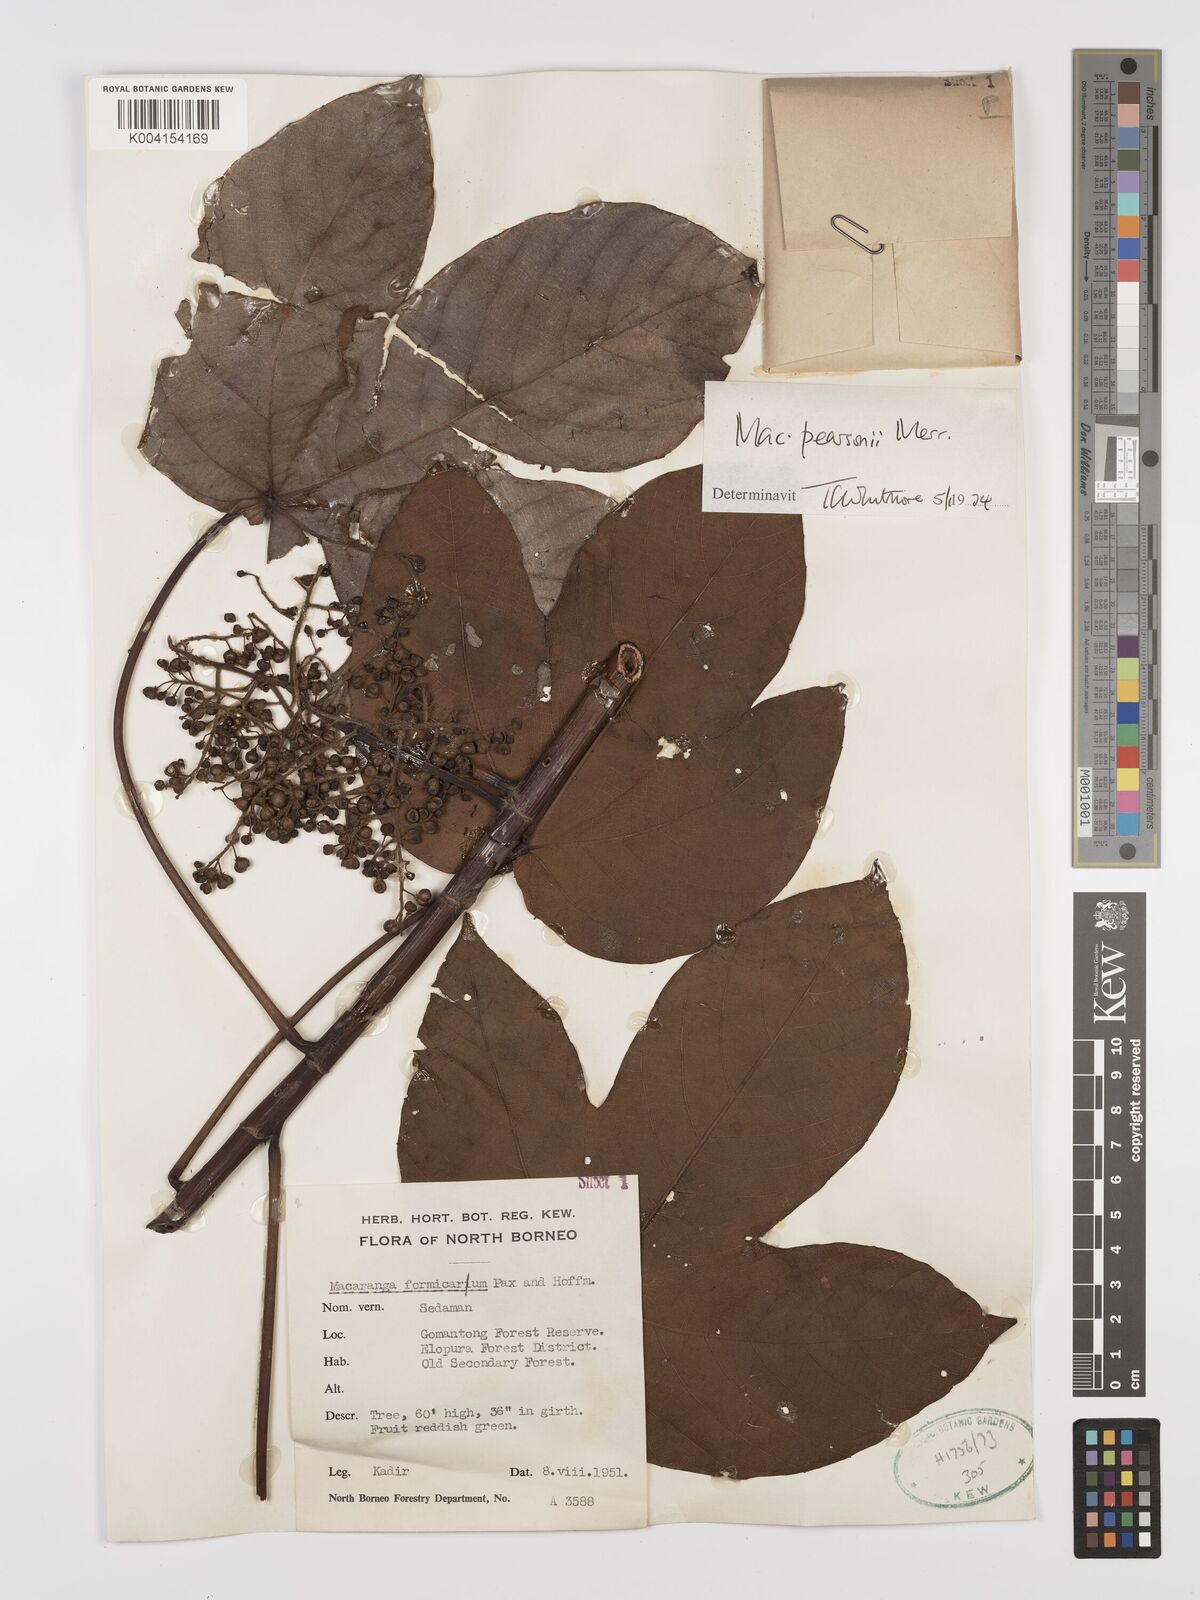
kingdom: Plantae
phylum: Tracheophyta
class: Magnoliopsida
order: Malpighiales
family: Euphorbiaceae
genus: Macaranga
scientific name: Macaranga pearsonii
